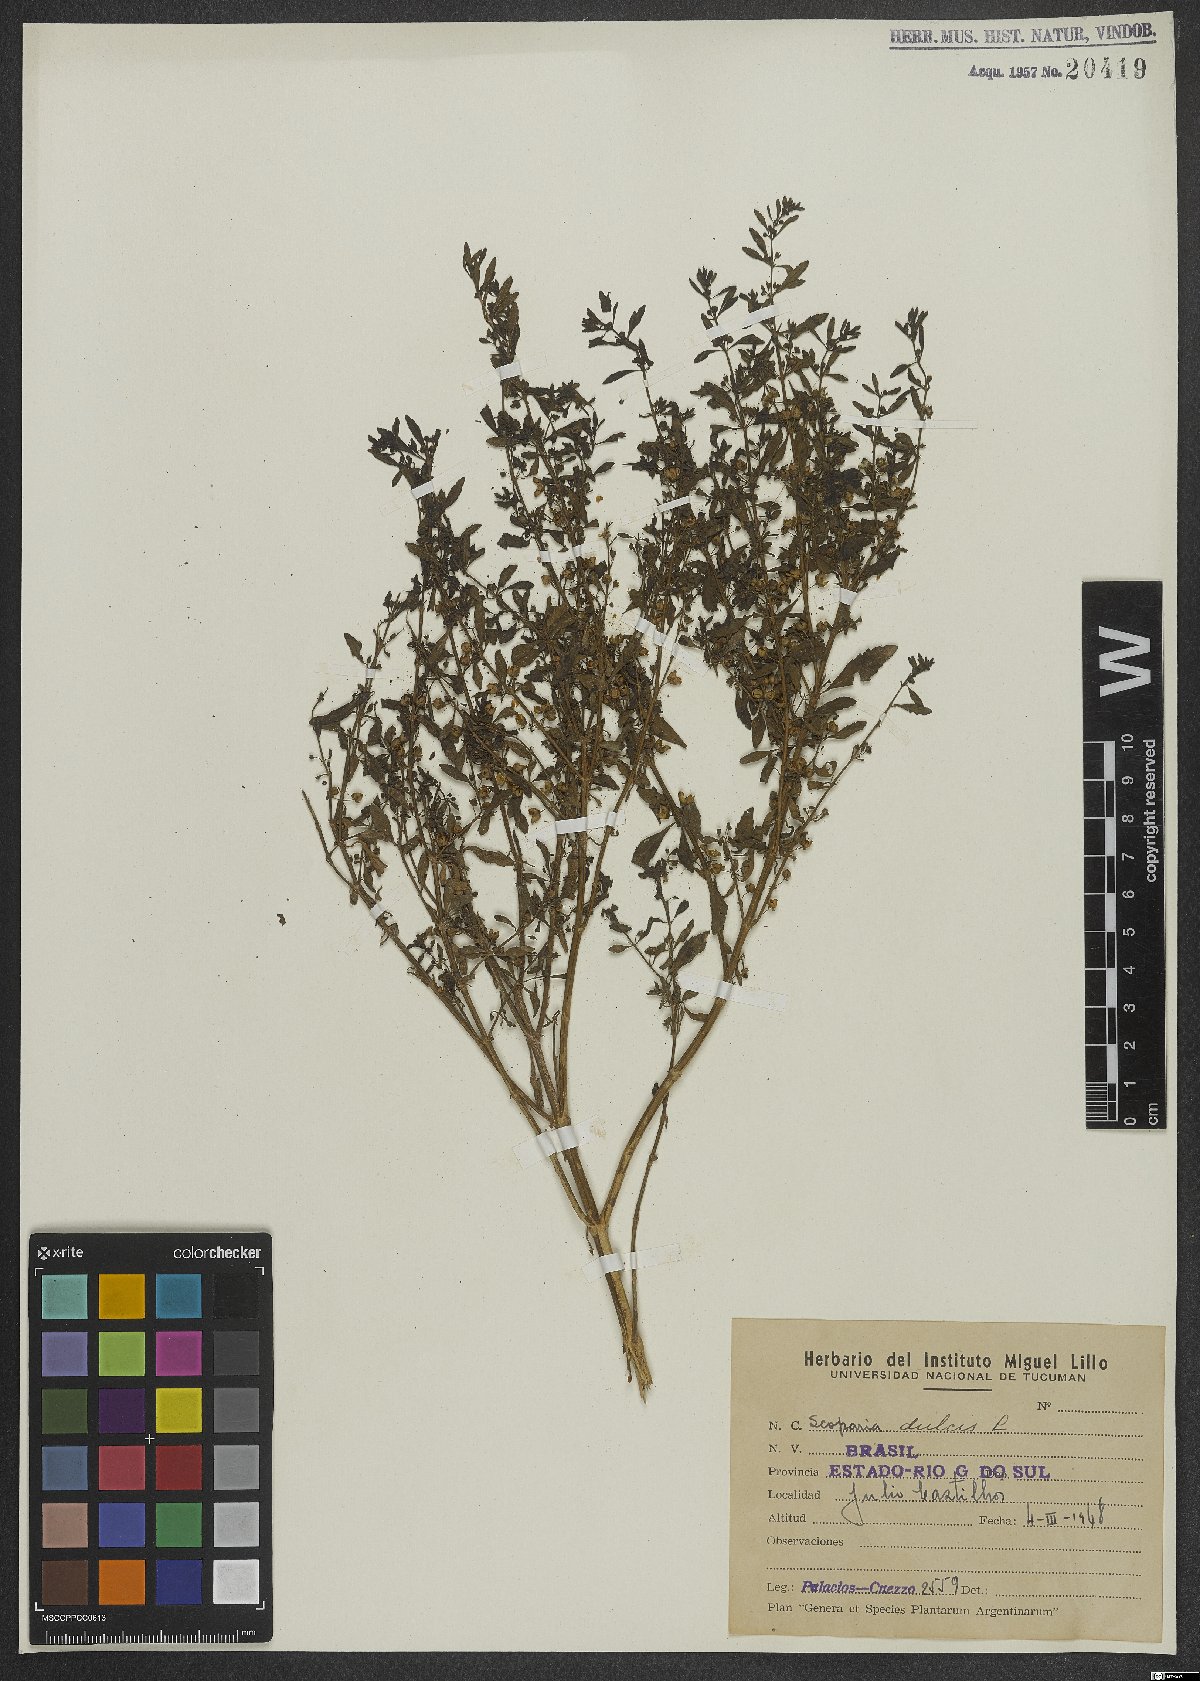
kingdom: Plantae
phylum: Tracheophyta
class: Magnoliopsida
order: Lamiales
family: Plantaginaceae
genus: Scoparia
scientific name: Scoparia dulcis
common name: Scoparia-weed
